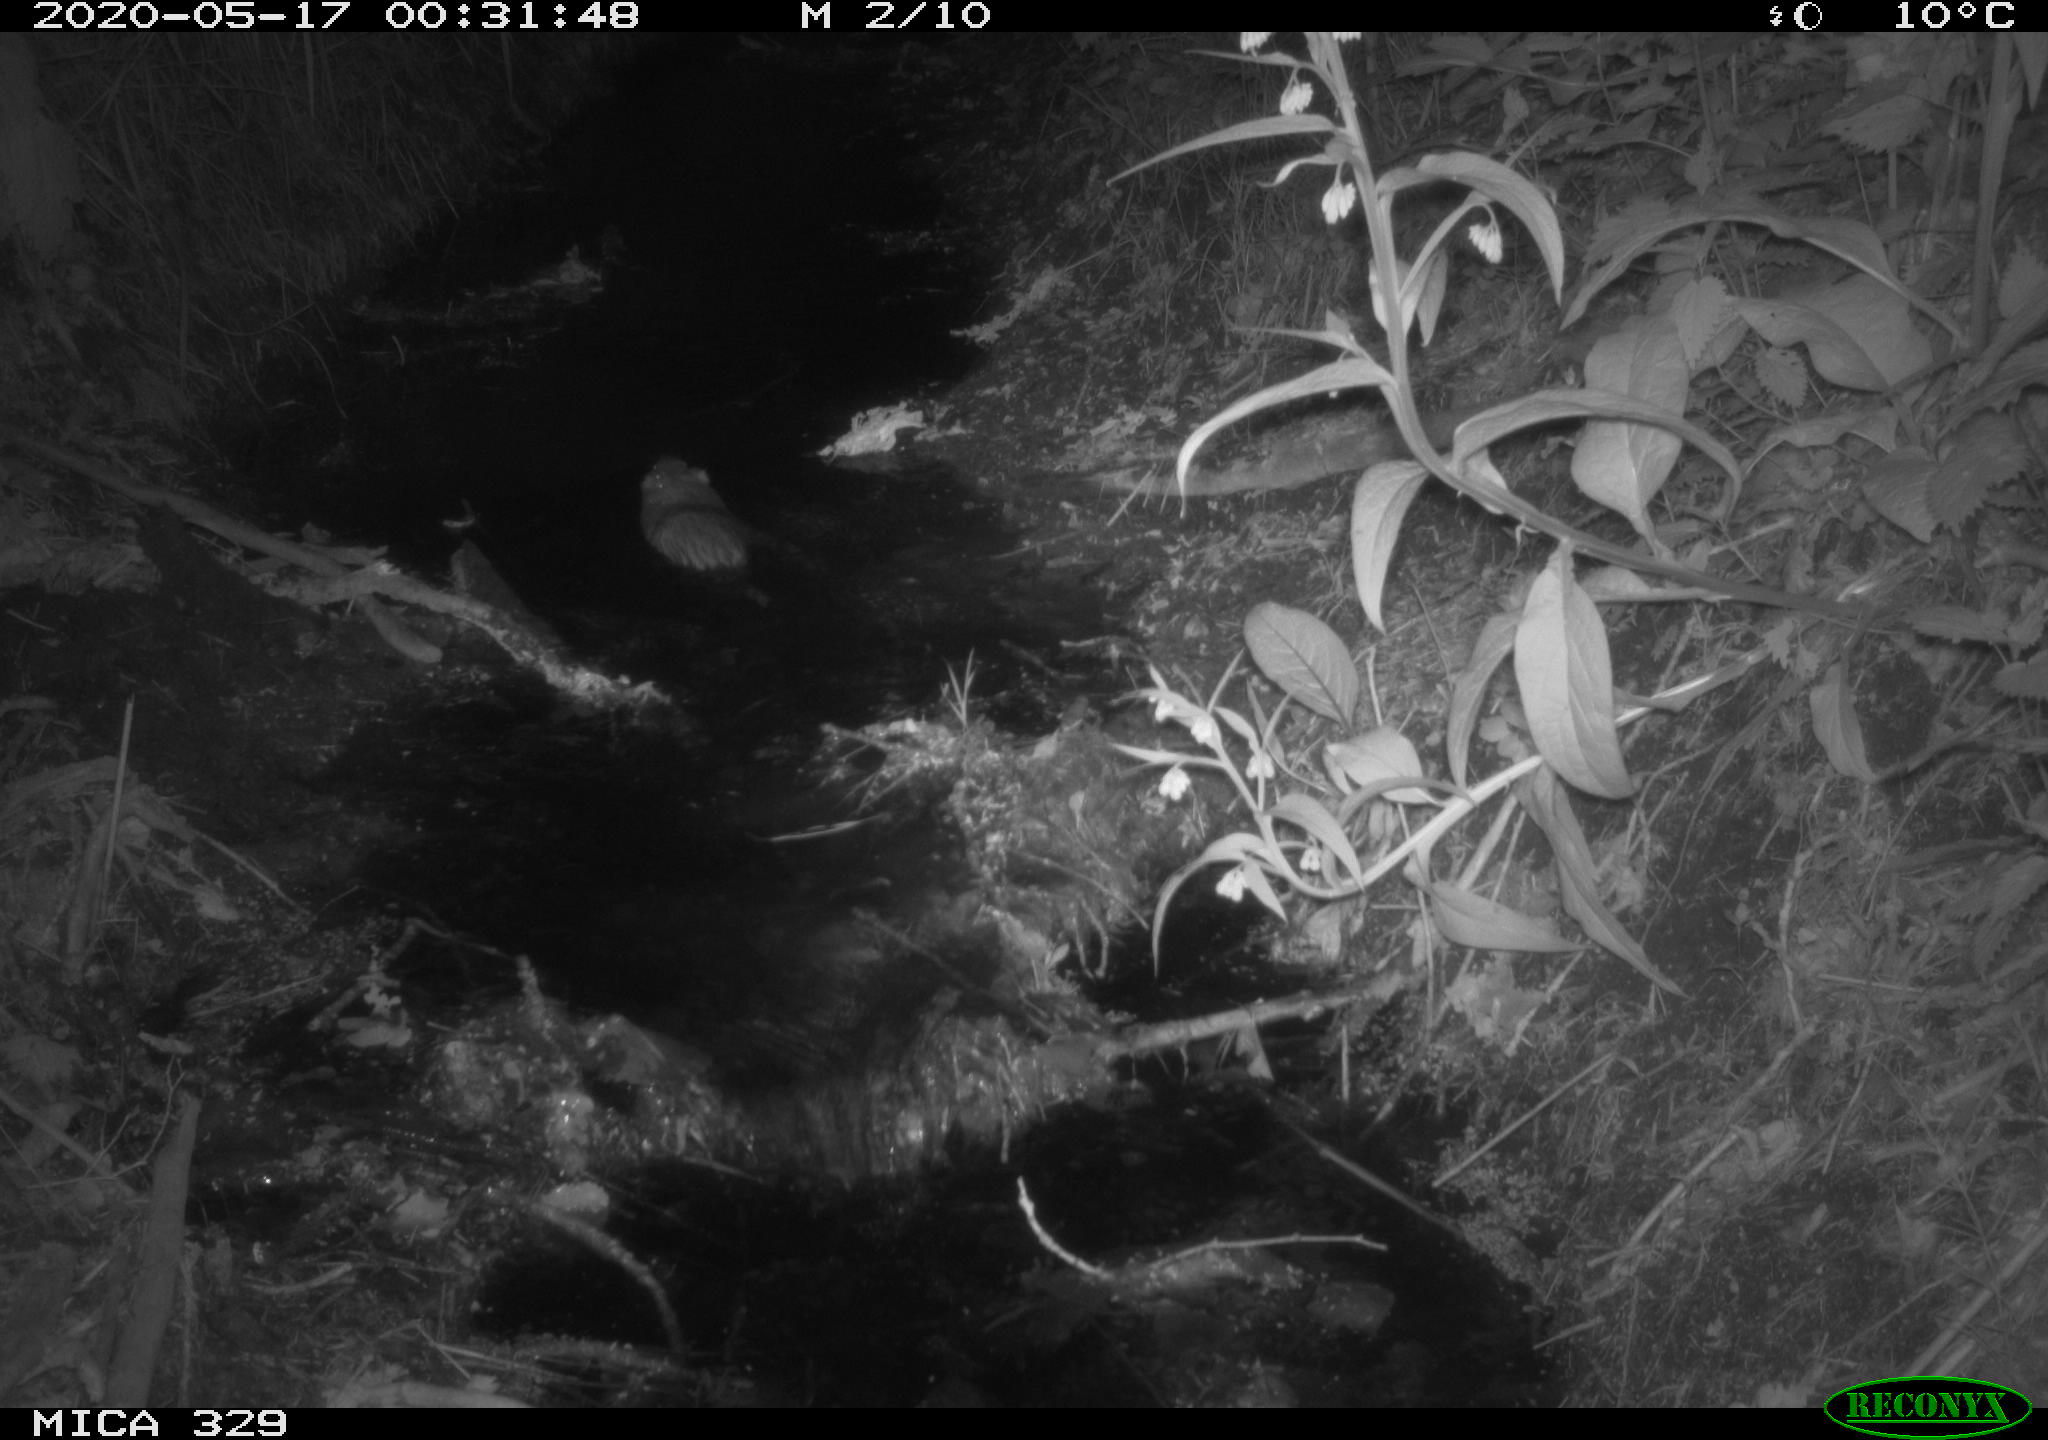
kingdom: Animalia
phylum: Chordata
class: Mammalia
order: Rodentia
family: Cricetidae
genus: Ondatra
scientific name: Ondatra zibethicus
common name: Muskrat
